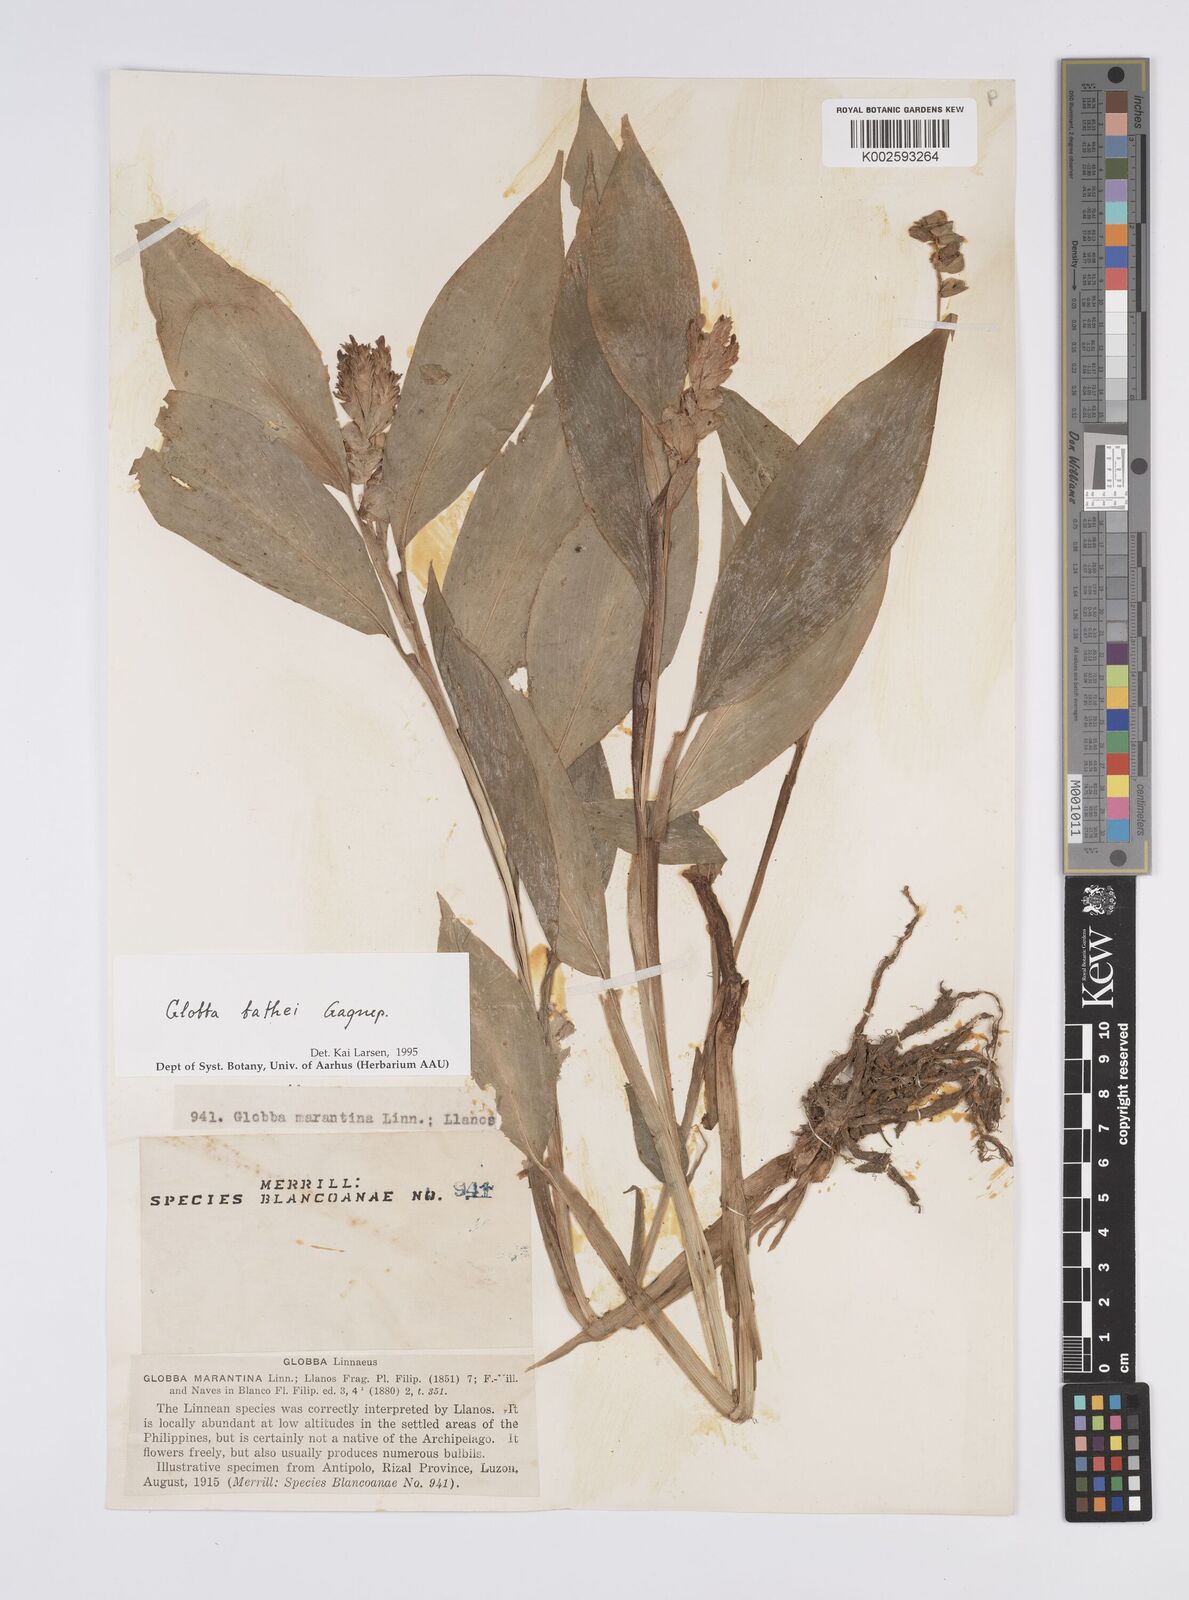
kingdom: Plantae
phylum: Tracheophyta
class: Liliopsida
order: Zingiberales
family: Zingiberaceae
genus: Globba
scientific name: Globba marantina
